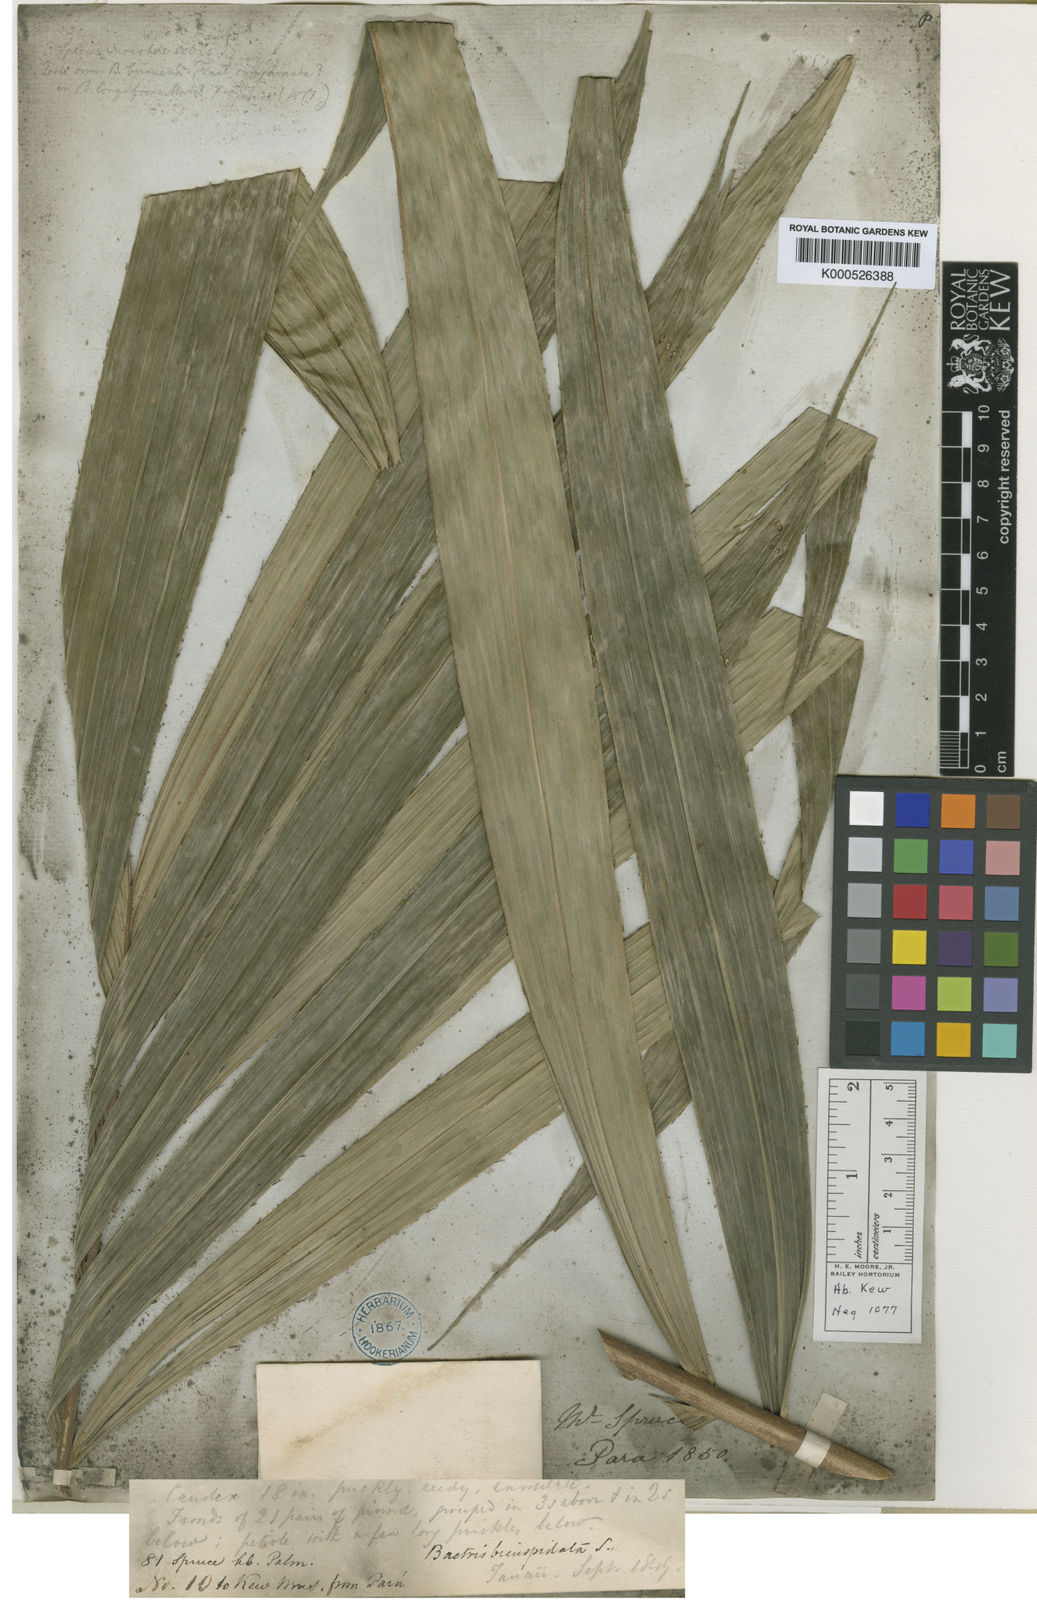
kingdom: Plantae
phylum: Tracheophyta
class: Liliopsida
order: Arecales
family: Arecaceae
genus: Bactris
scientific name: Bactris acanthocarpa
